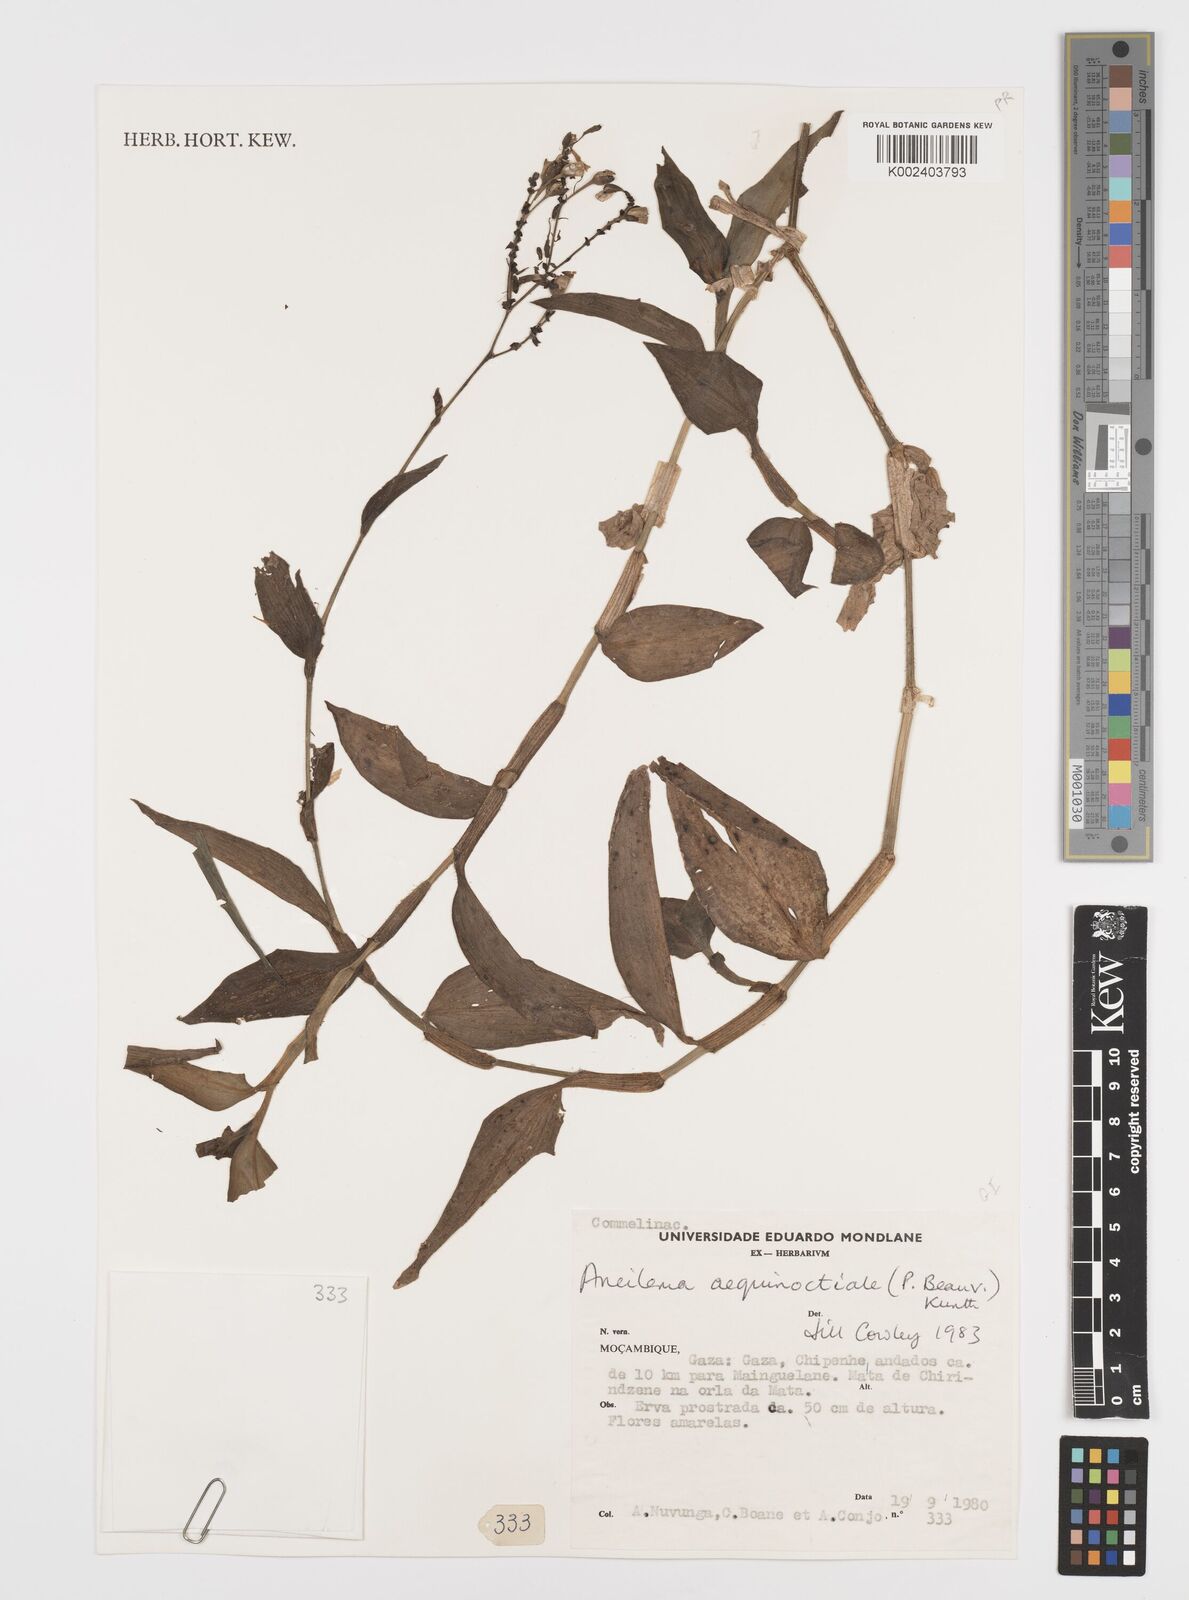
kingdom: Plantae
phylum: Tracheophyta
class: Liliopsida
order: Commelinales
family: Commelinaceae
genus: Aneilema
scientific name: Aneilema aequinoctiale
